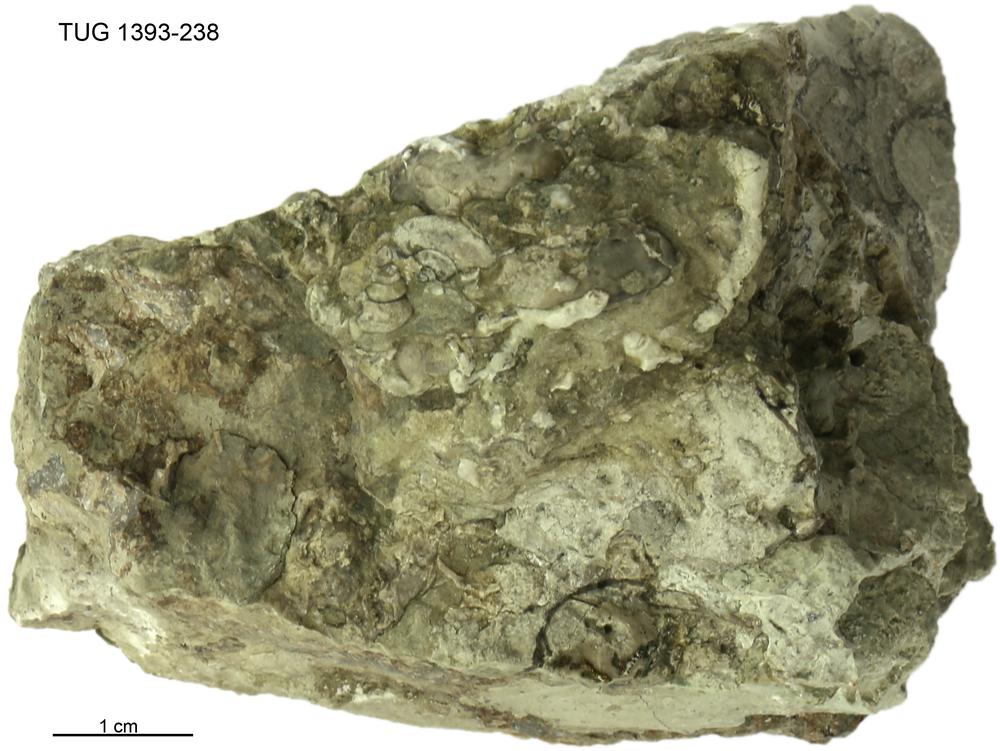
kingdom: Animalia
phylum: Mollusca
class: Gastropoda
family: Lophospiridae
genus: Lophospira
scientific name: Lophospira
